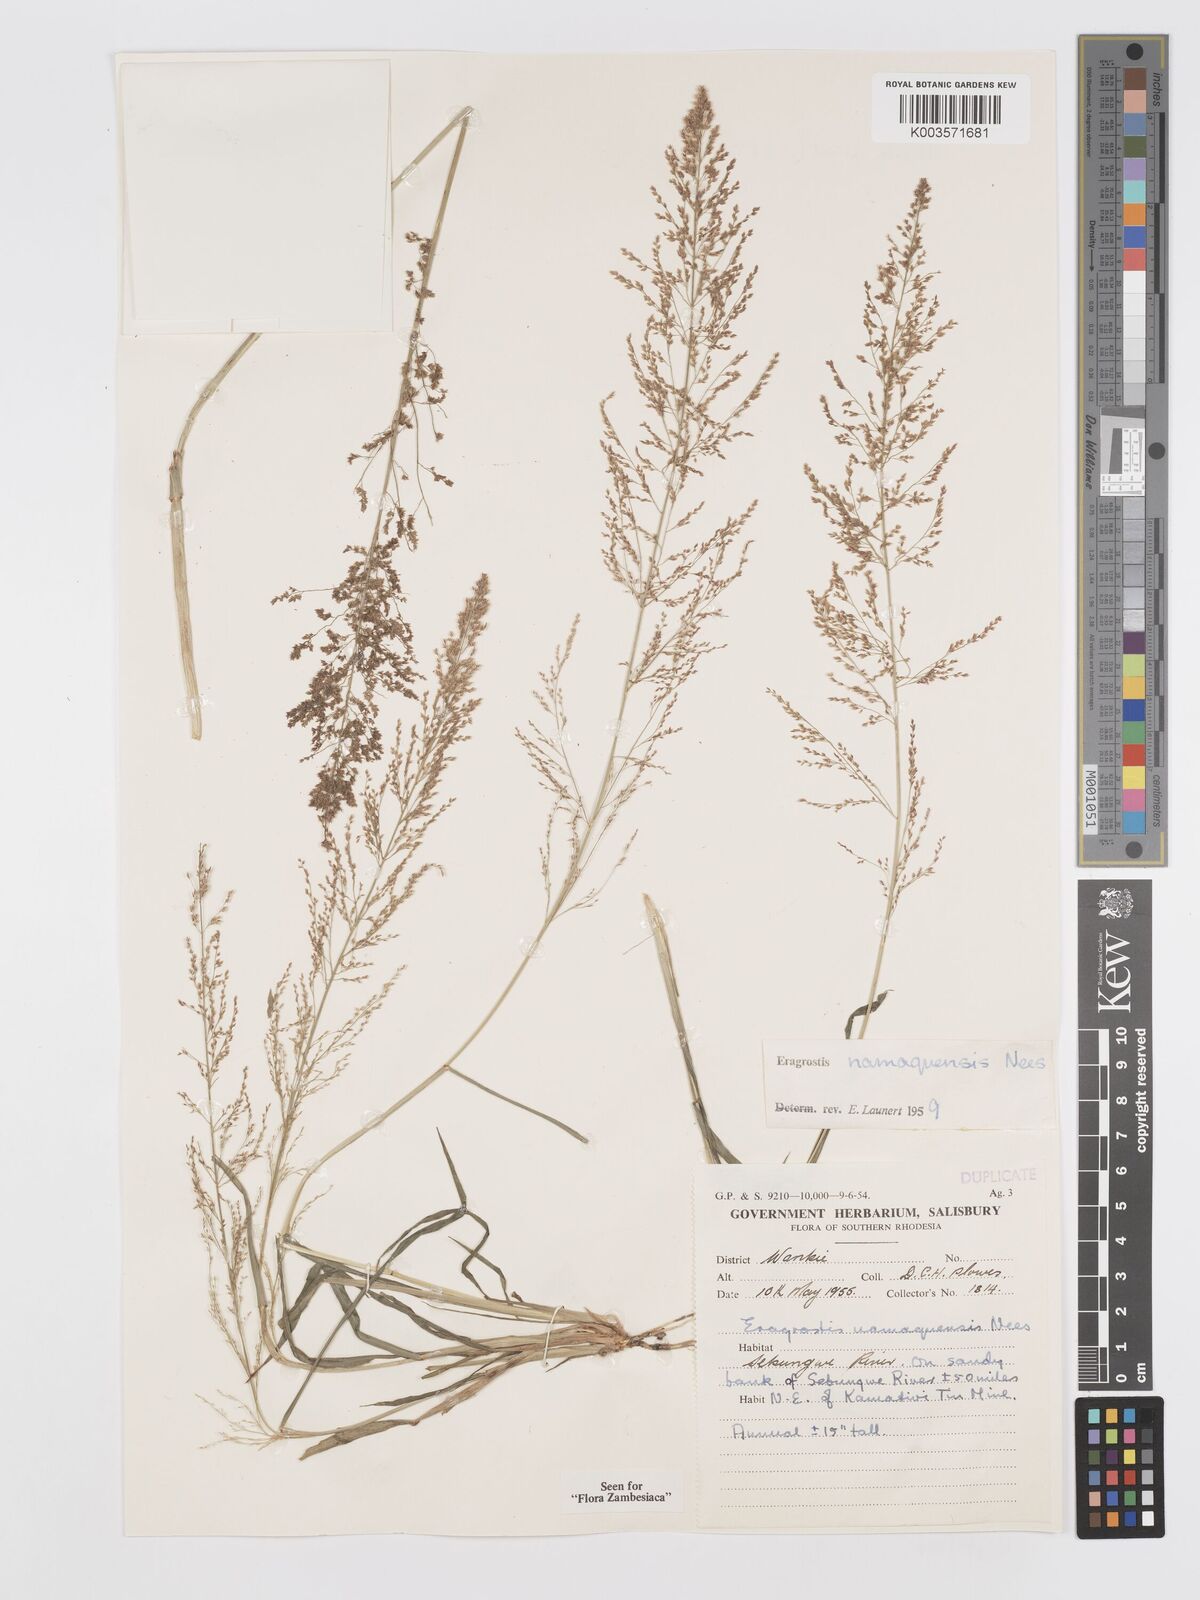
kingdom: Plantae
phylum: Tracheophyta
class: Liliopsida
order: Poales
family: Poaceae
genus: Eragrostis
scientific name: Eragrostis japonica
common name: Pond lovegrass
